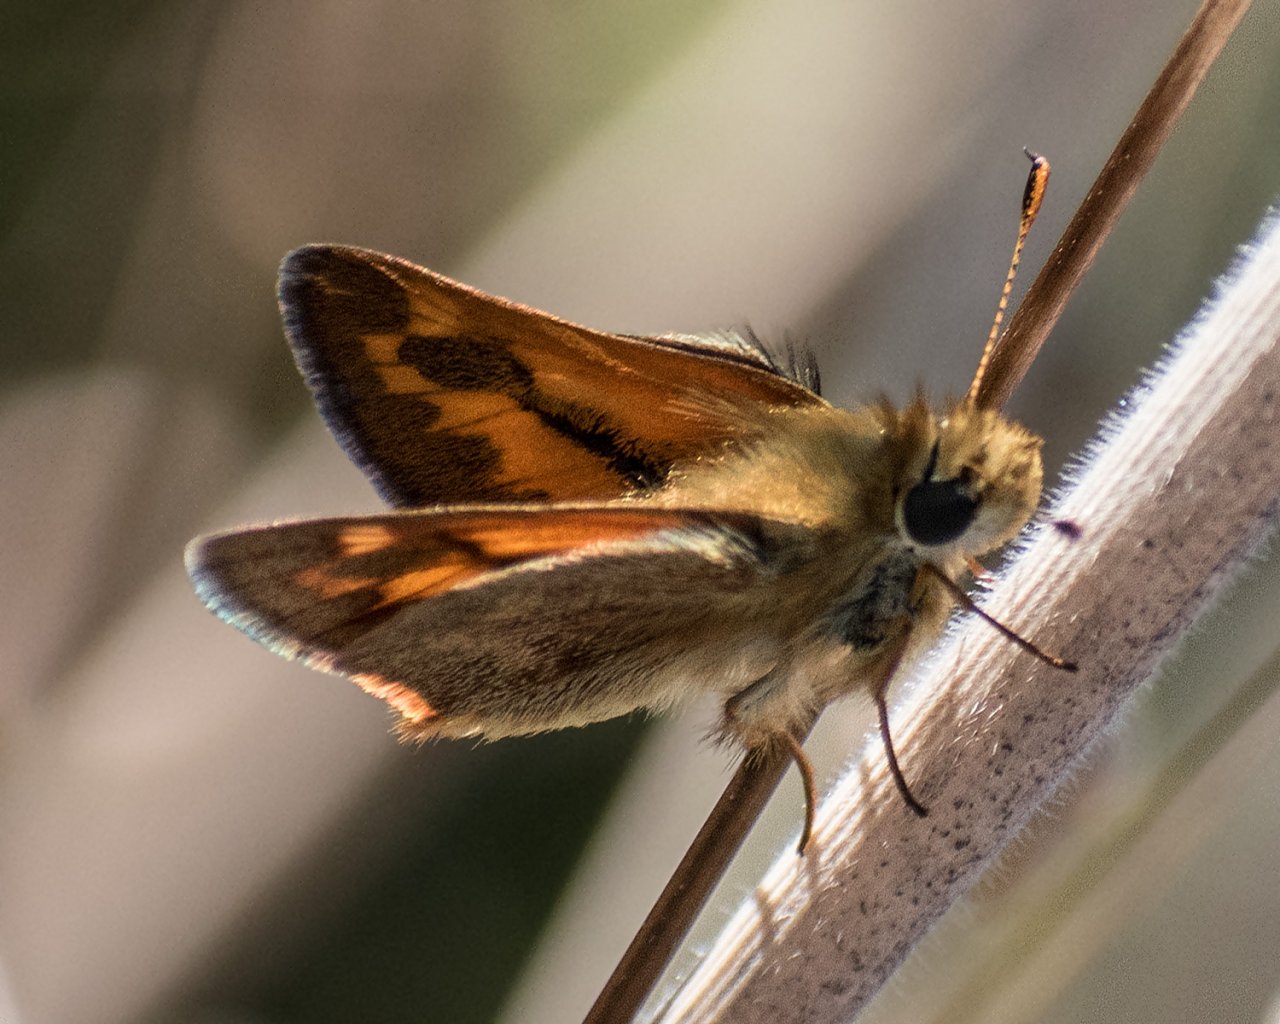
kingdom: Animalia
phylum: Arthropoda
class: Insecta
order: Lepidoptera
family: Hesperiidae
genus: Ochlodes
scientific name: Ochlodes sylvanoides
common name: Woodland Skipper
